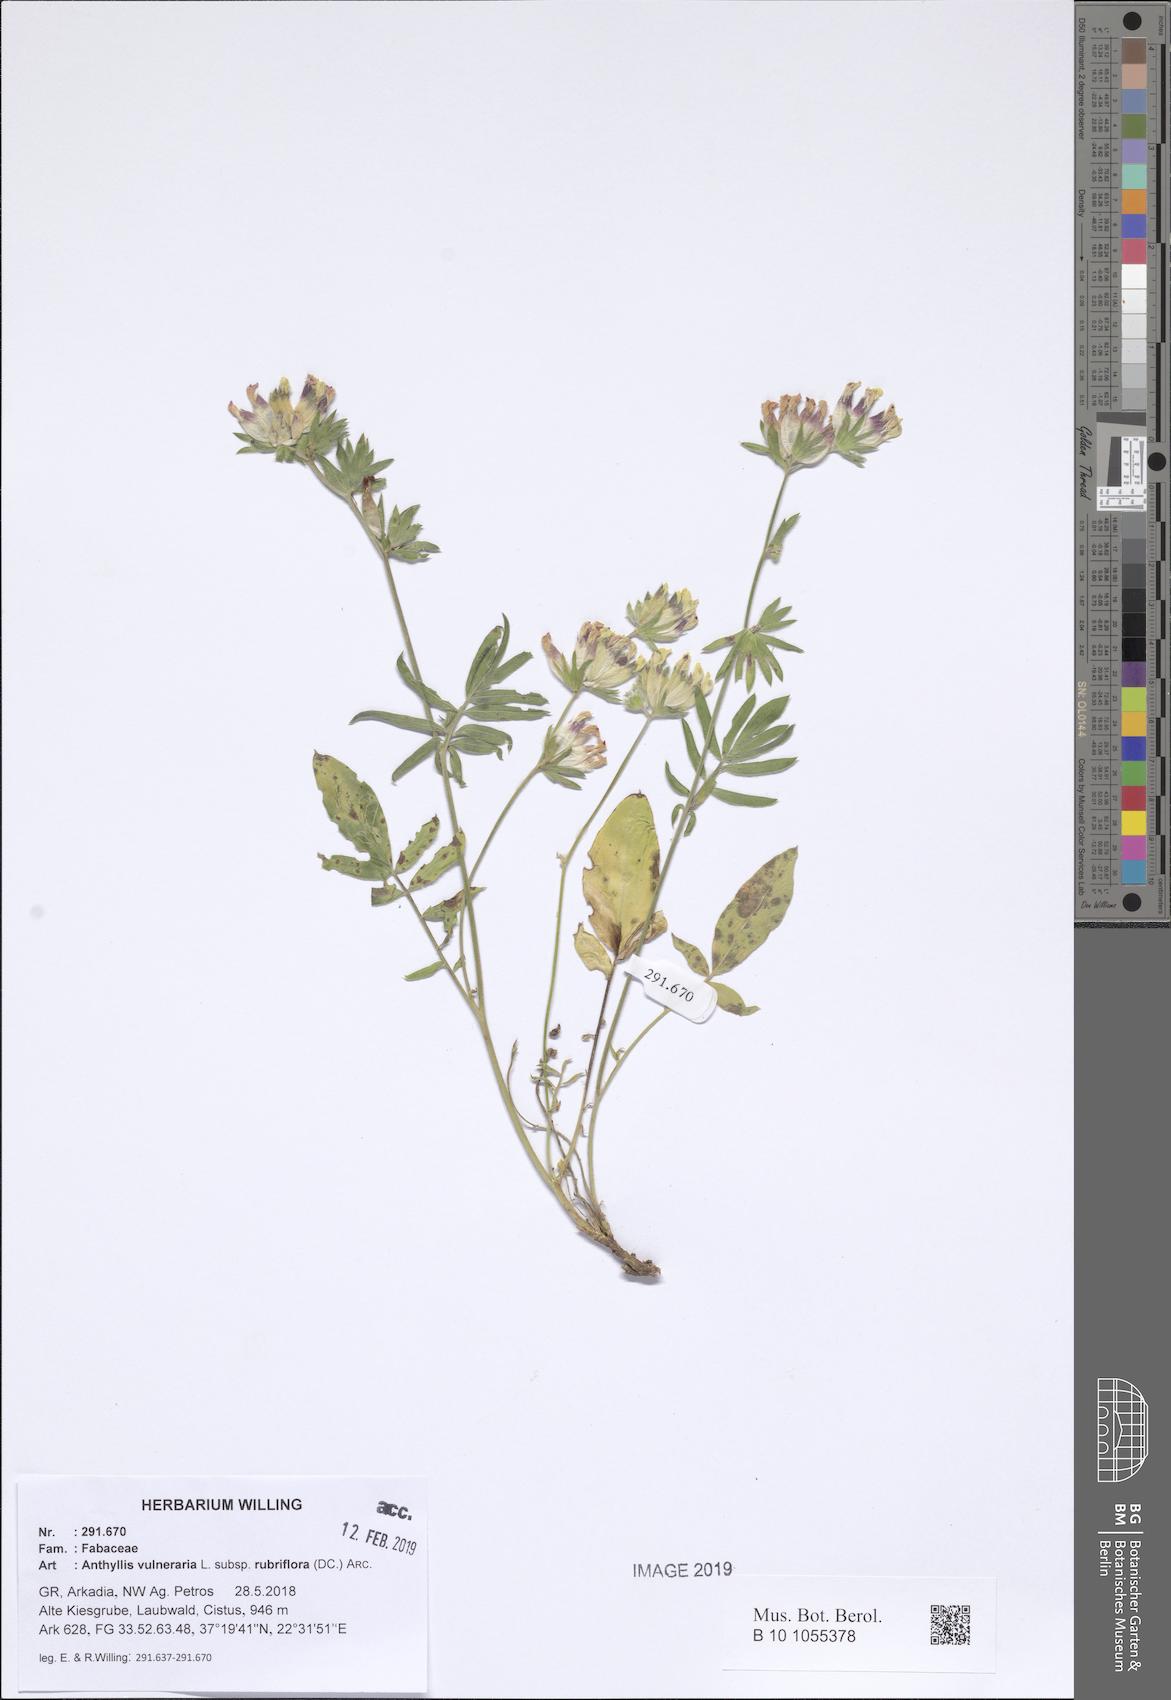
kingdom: Plantae
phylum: Tracheophyta
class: Magnoliopsida
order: Fabales
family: Fabaceae
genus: Anthyllis
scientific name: Anthyllis vulneraria
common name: Kidney vetch
